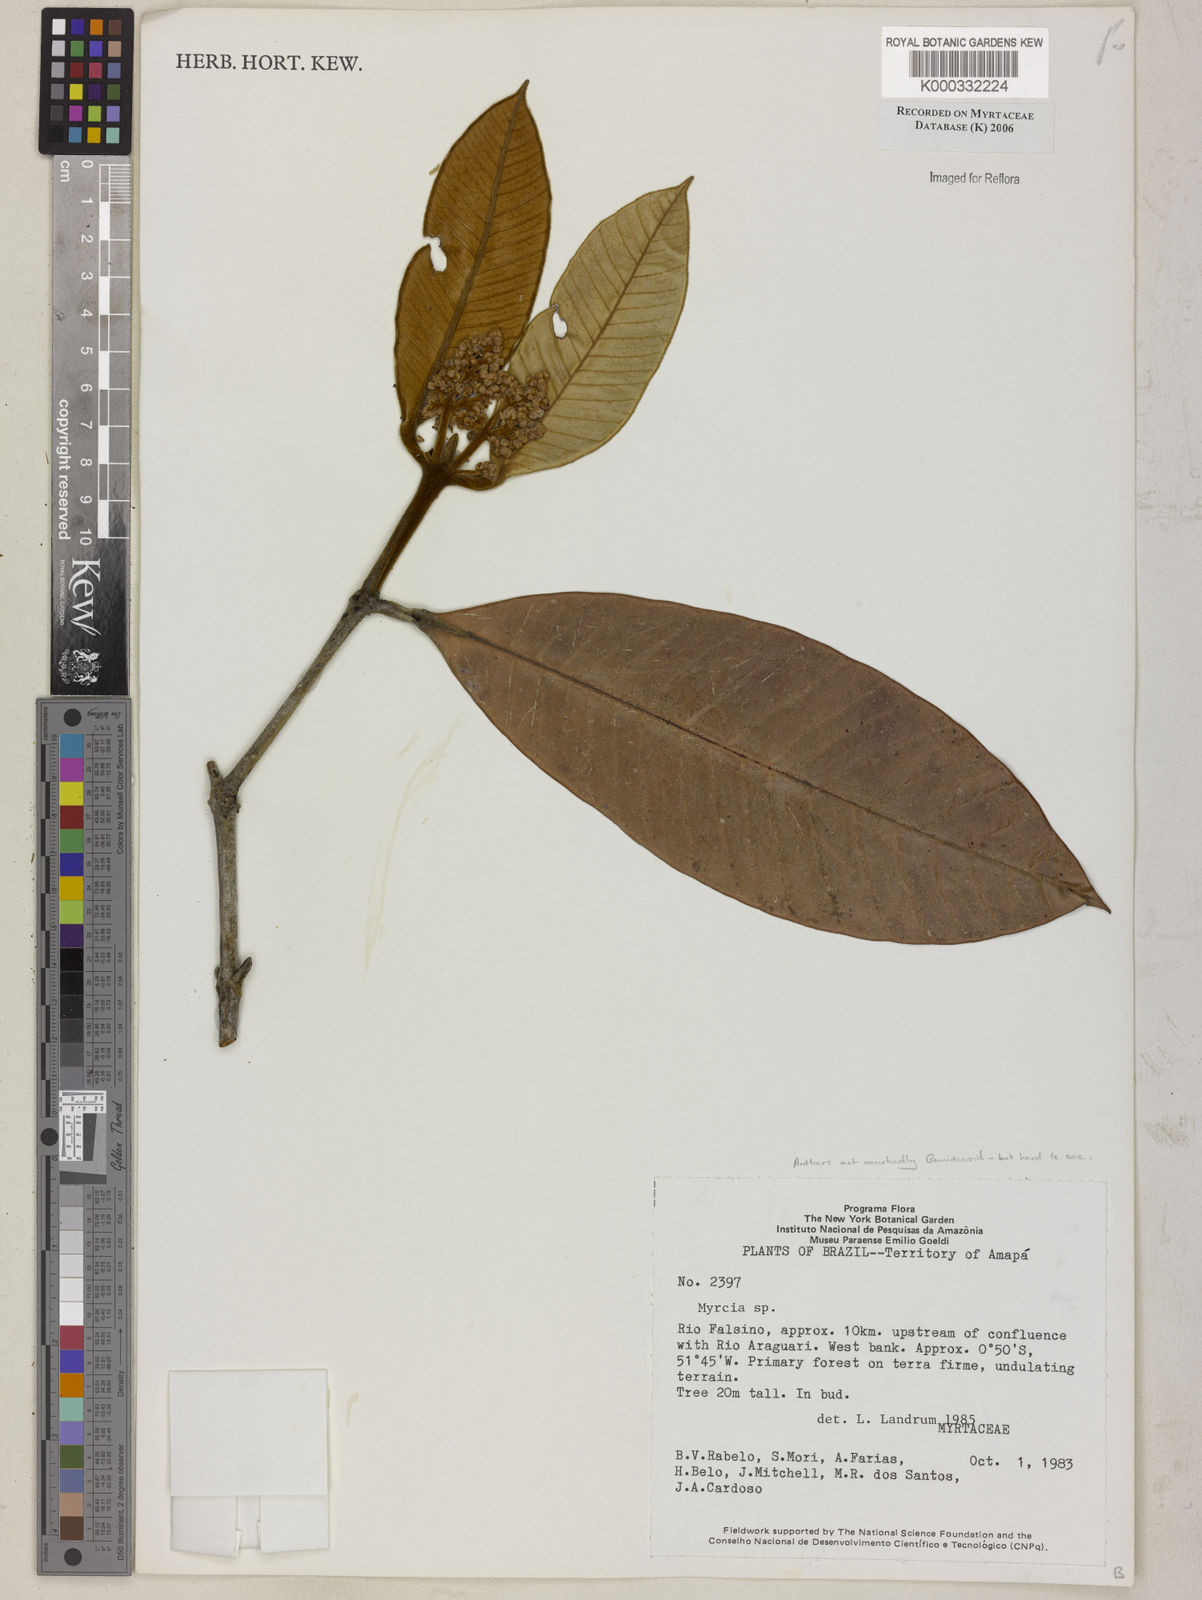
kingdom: Plantae
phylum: Tracheophyta
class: Magnoliopsida
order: Myrtales
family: Myrtaceae
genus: Myrcia
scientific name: Myrcia
